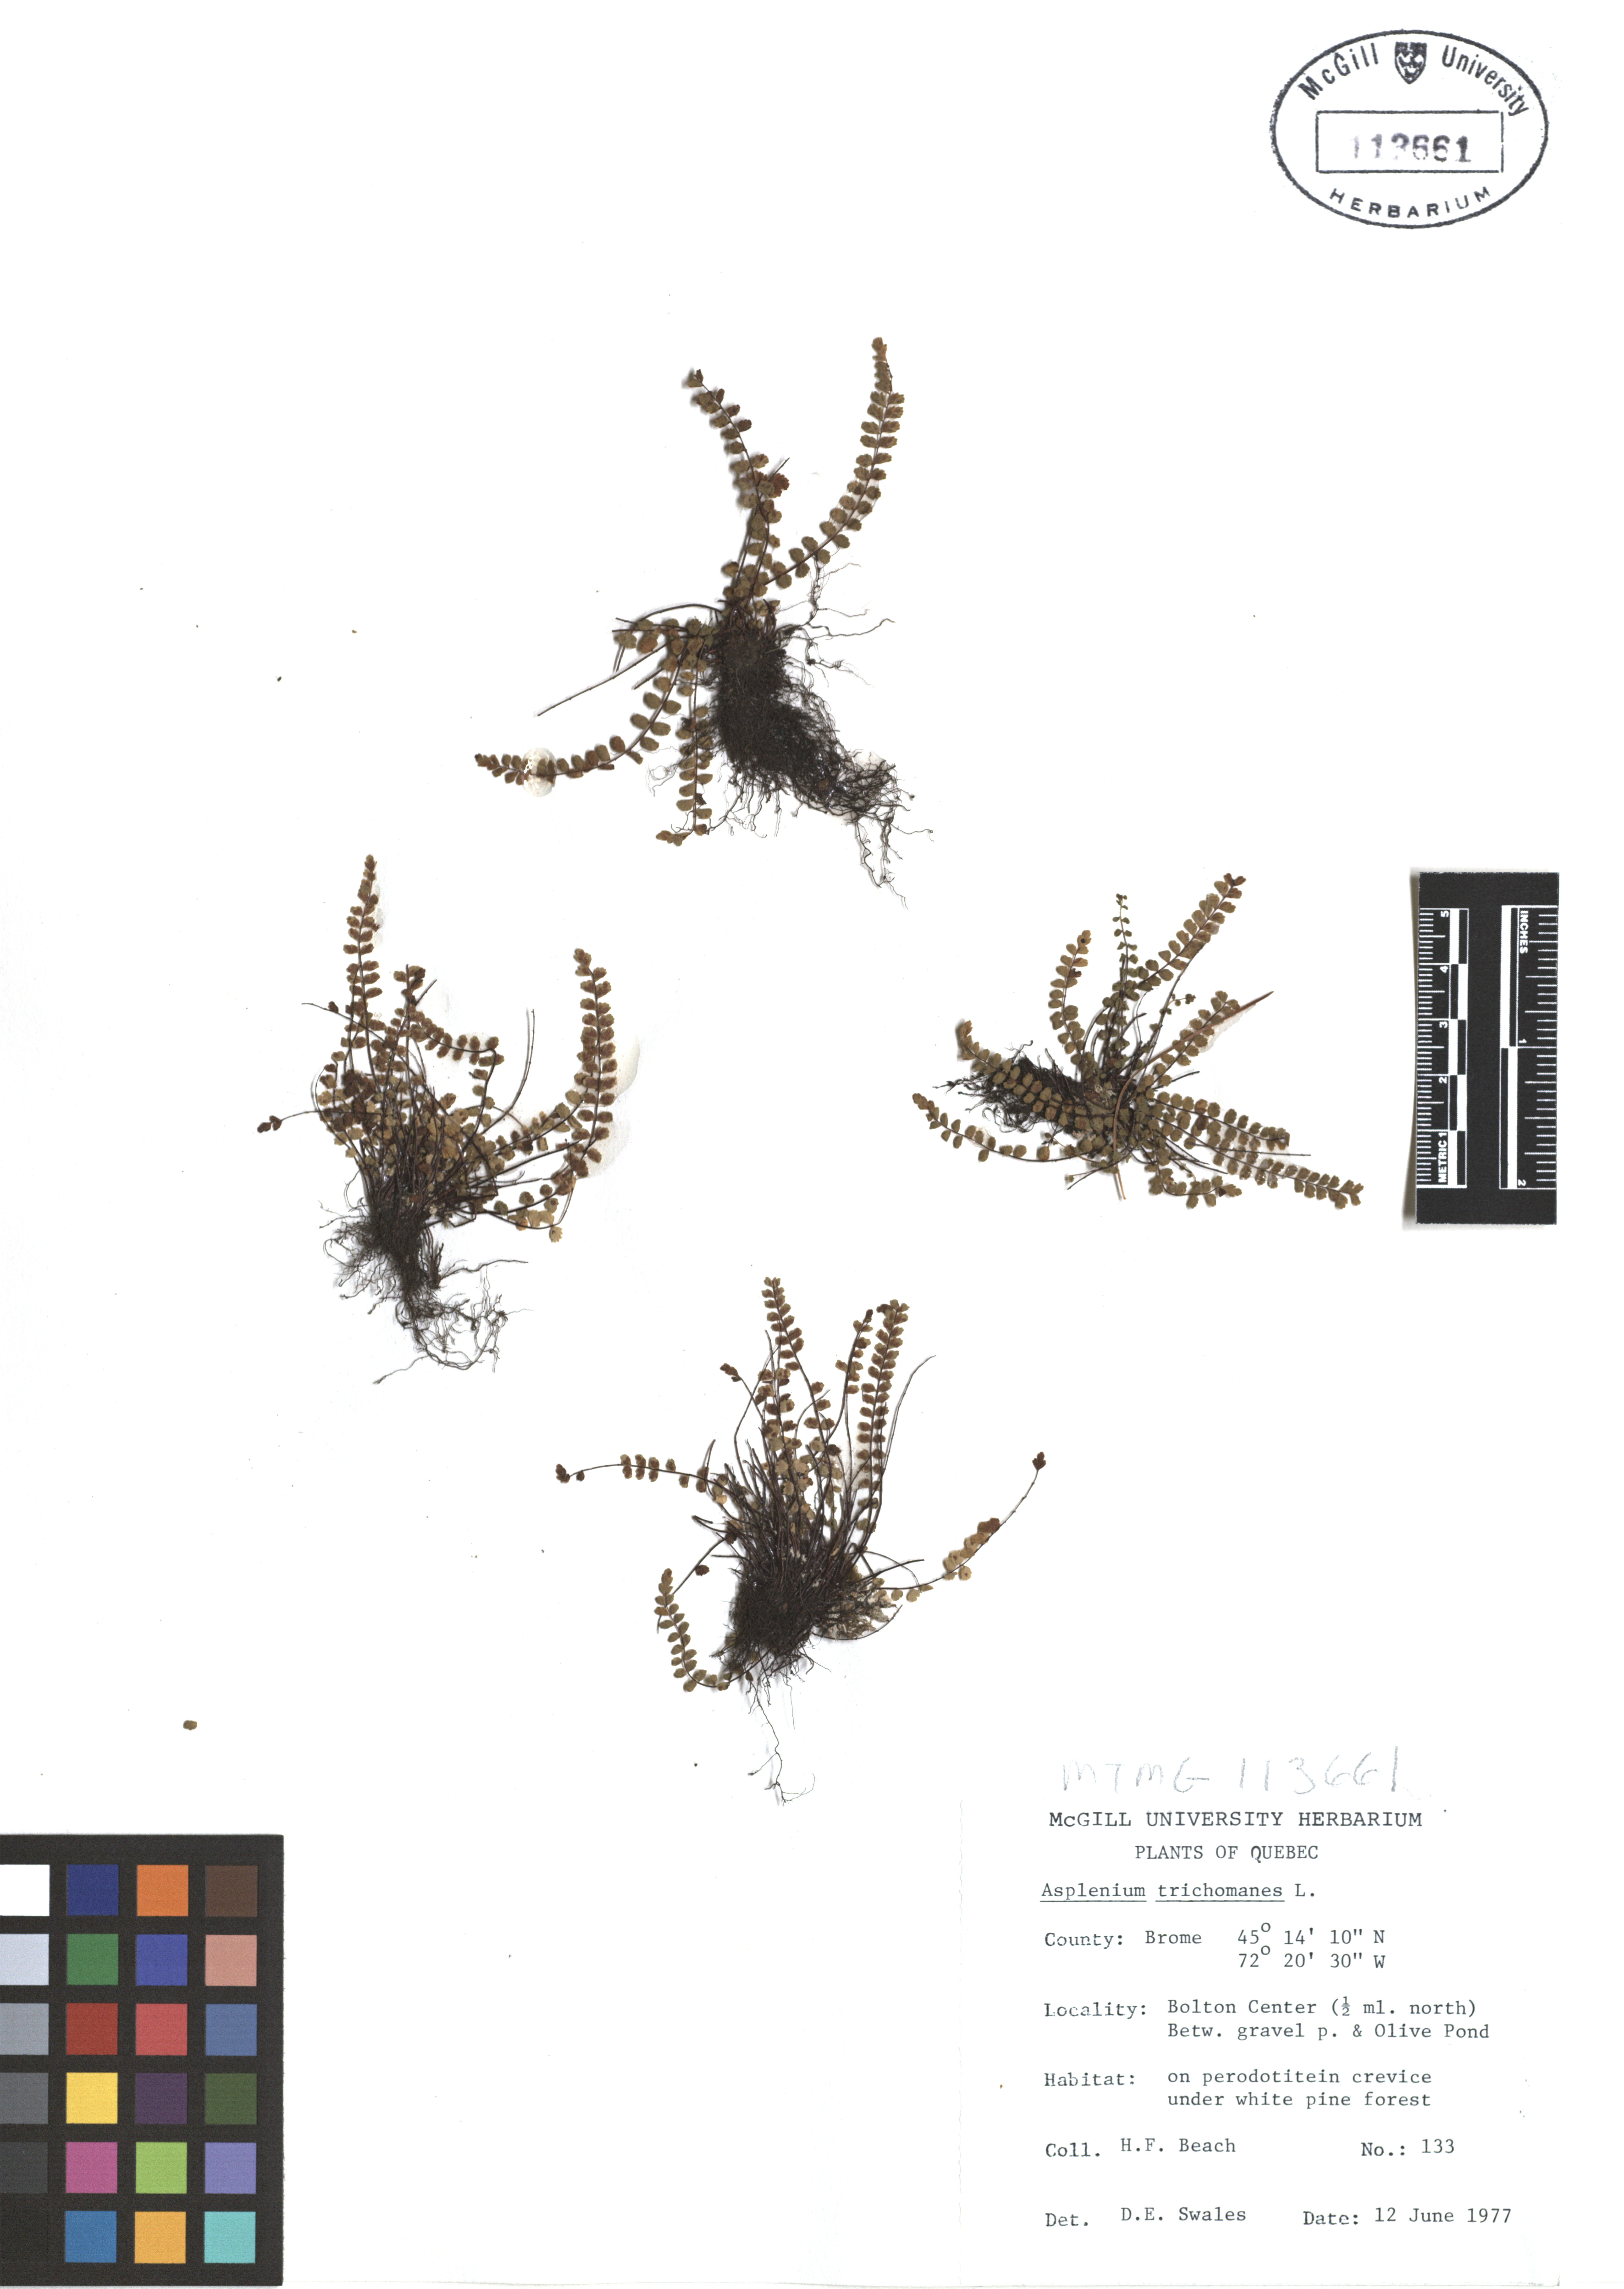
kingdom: Plantae
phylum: Tracheophyta
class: Polypodiopsida
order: Polypodiales
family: Aspleniaceae
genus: Asplenium
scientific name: Asplenium trichomanes
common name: Maidenhair spleenwort
